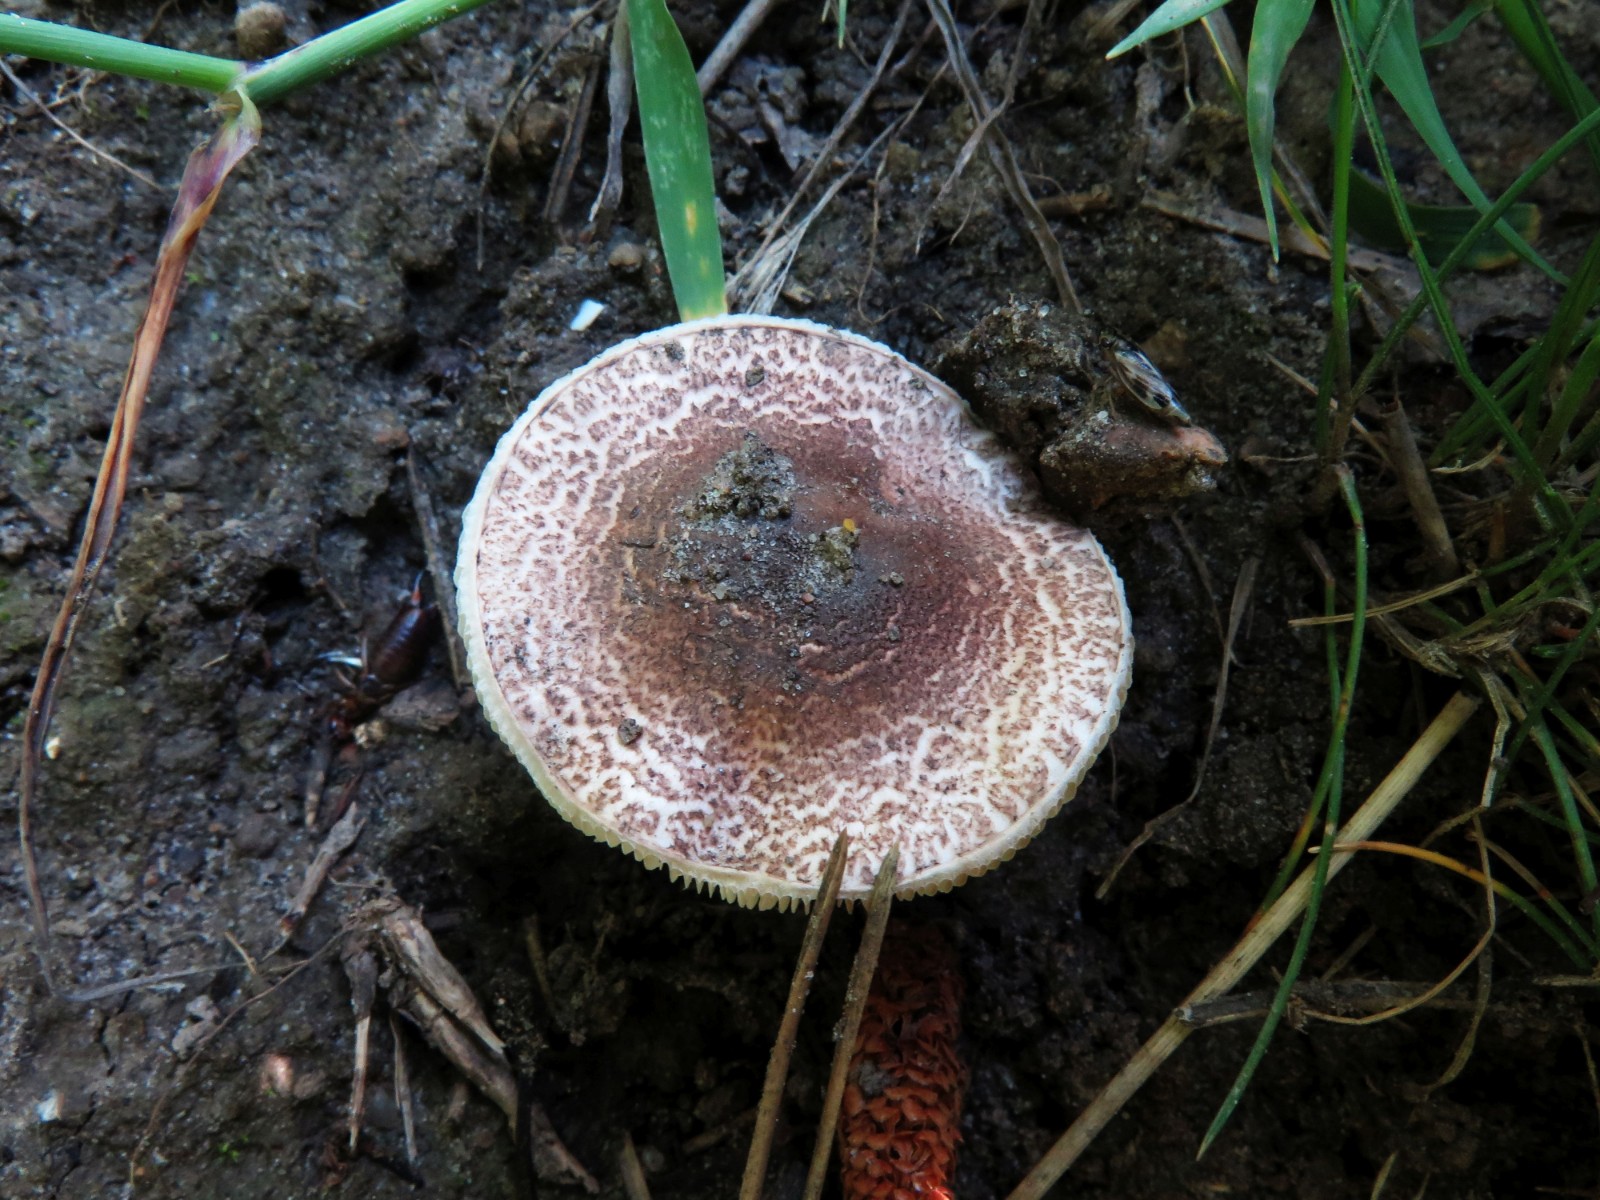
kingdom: Fungi
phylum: Basidiomycota
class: Agaricomycetes
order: Agaricales
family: Agaricaceae
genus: Lepiota
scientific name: Lepiota brunneoincarnata
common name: brunrød parasolhat
